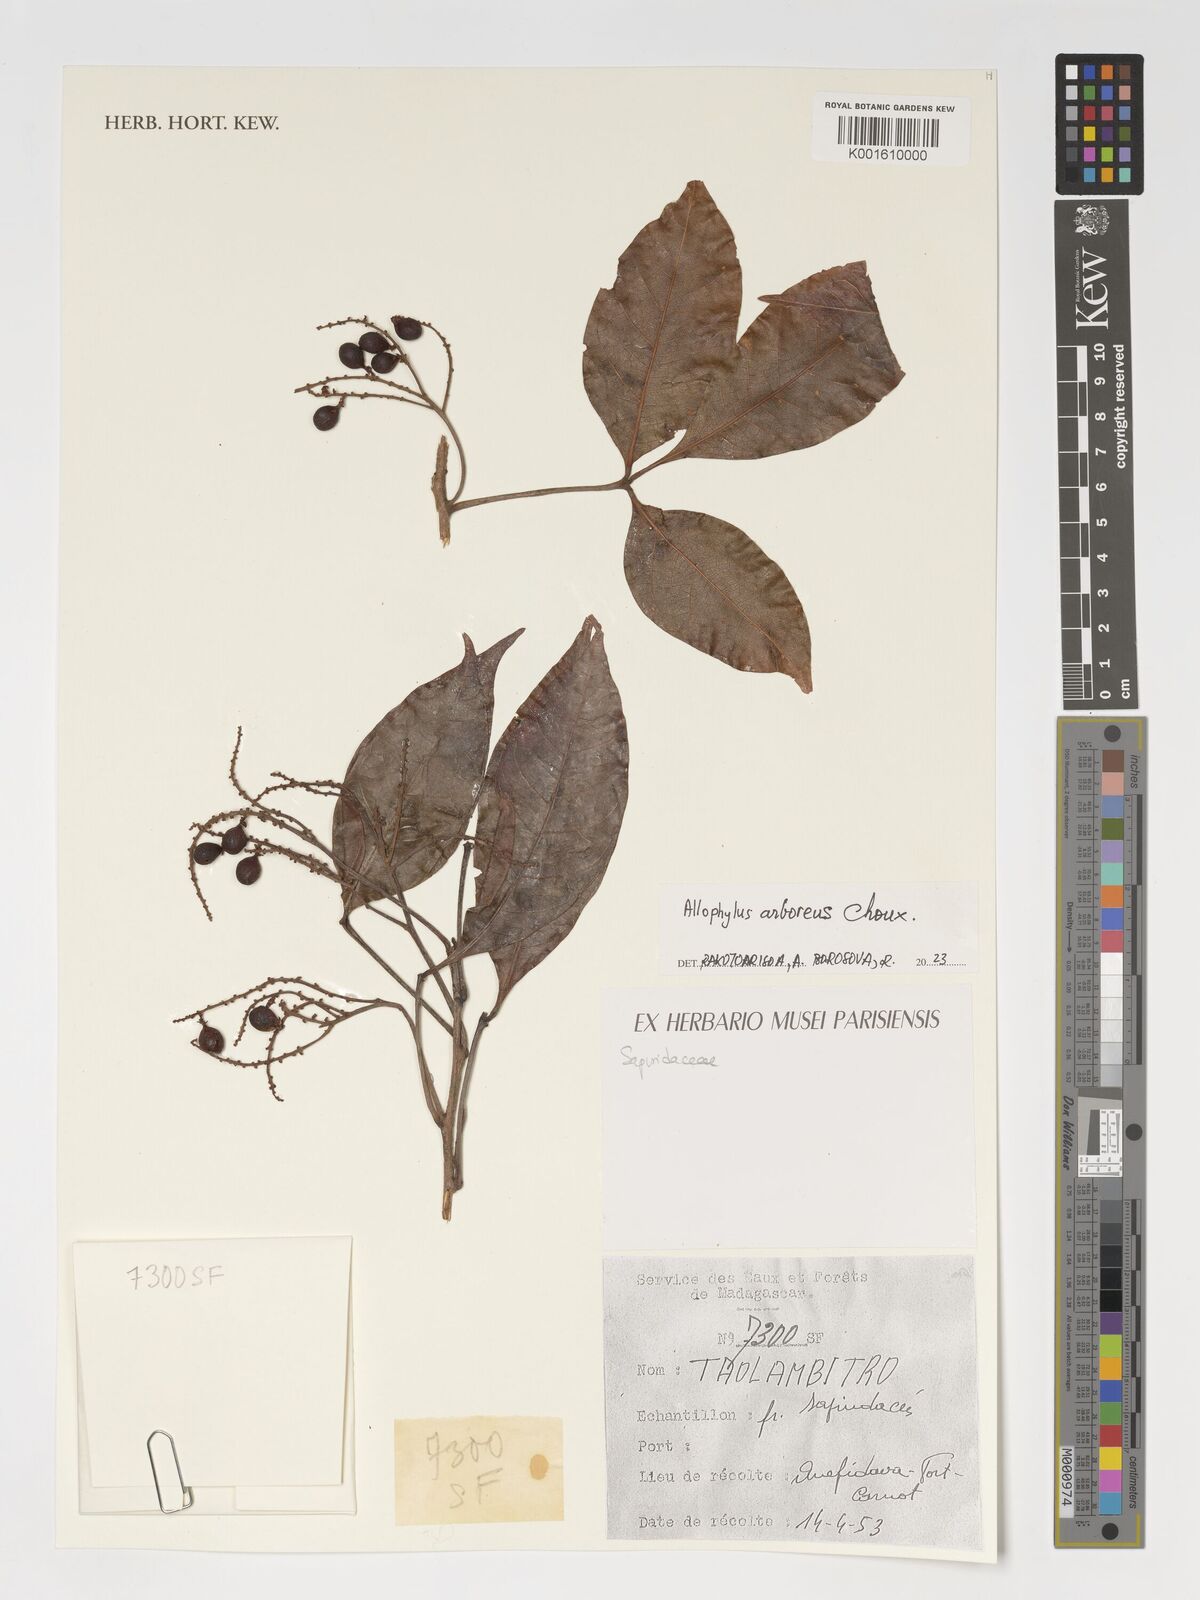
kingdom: Plantae
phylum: Tracheophyta
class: Magnoliopsida
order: Sapindales
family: Sapindaceae
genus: Allophylus
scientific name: Allophylus arboreus
